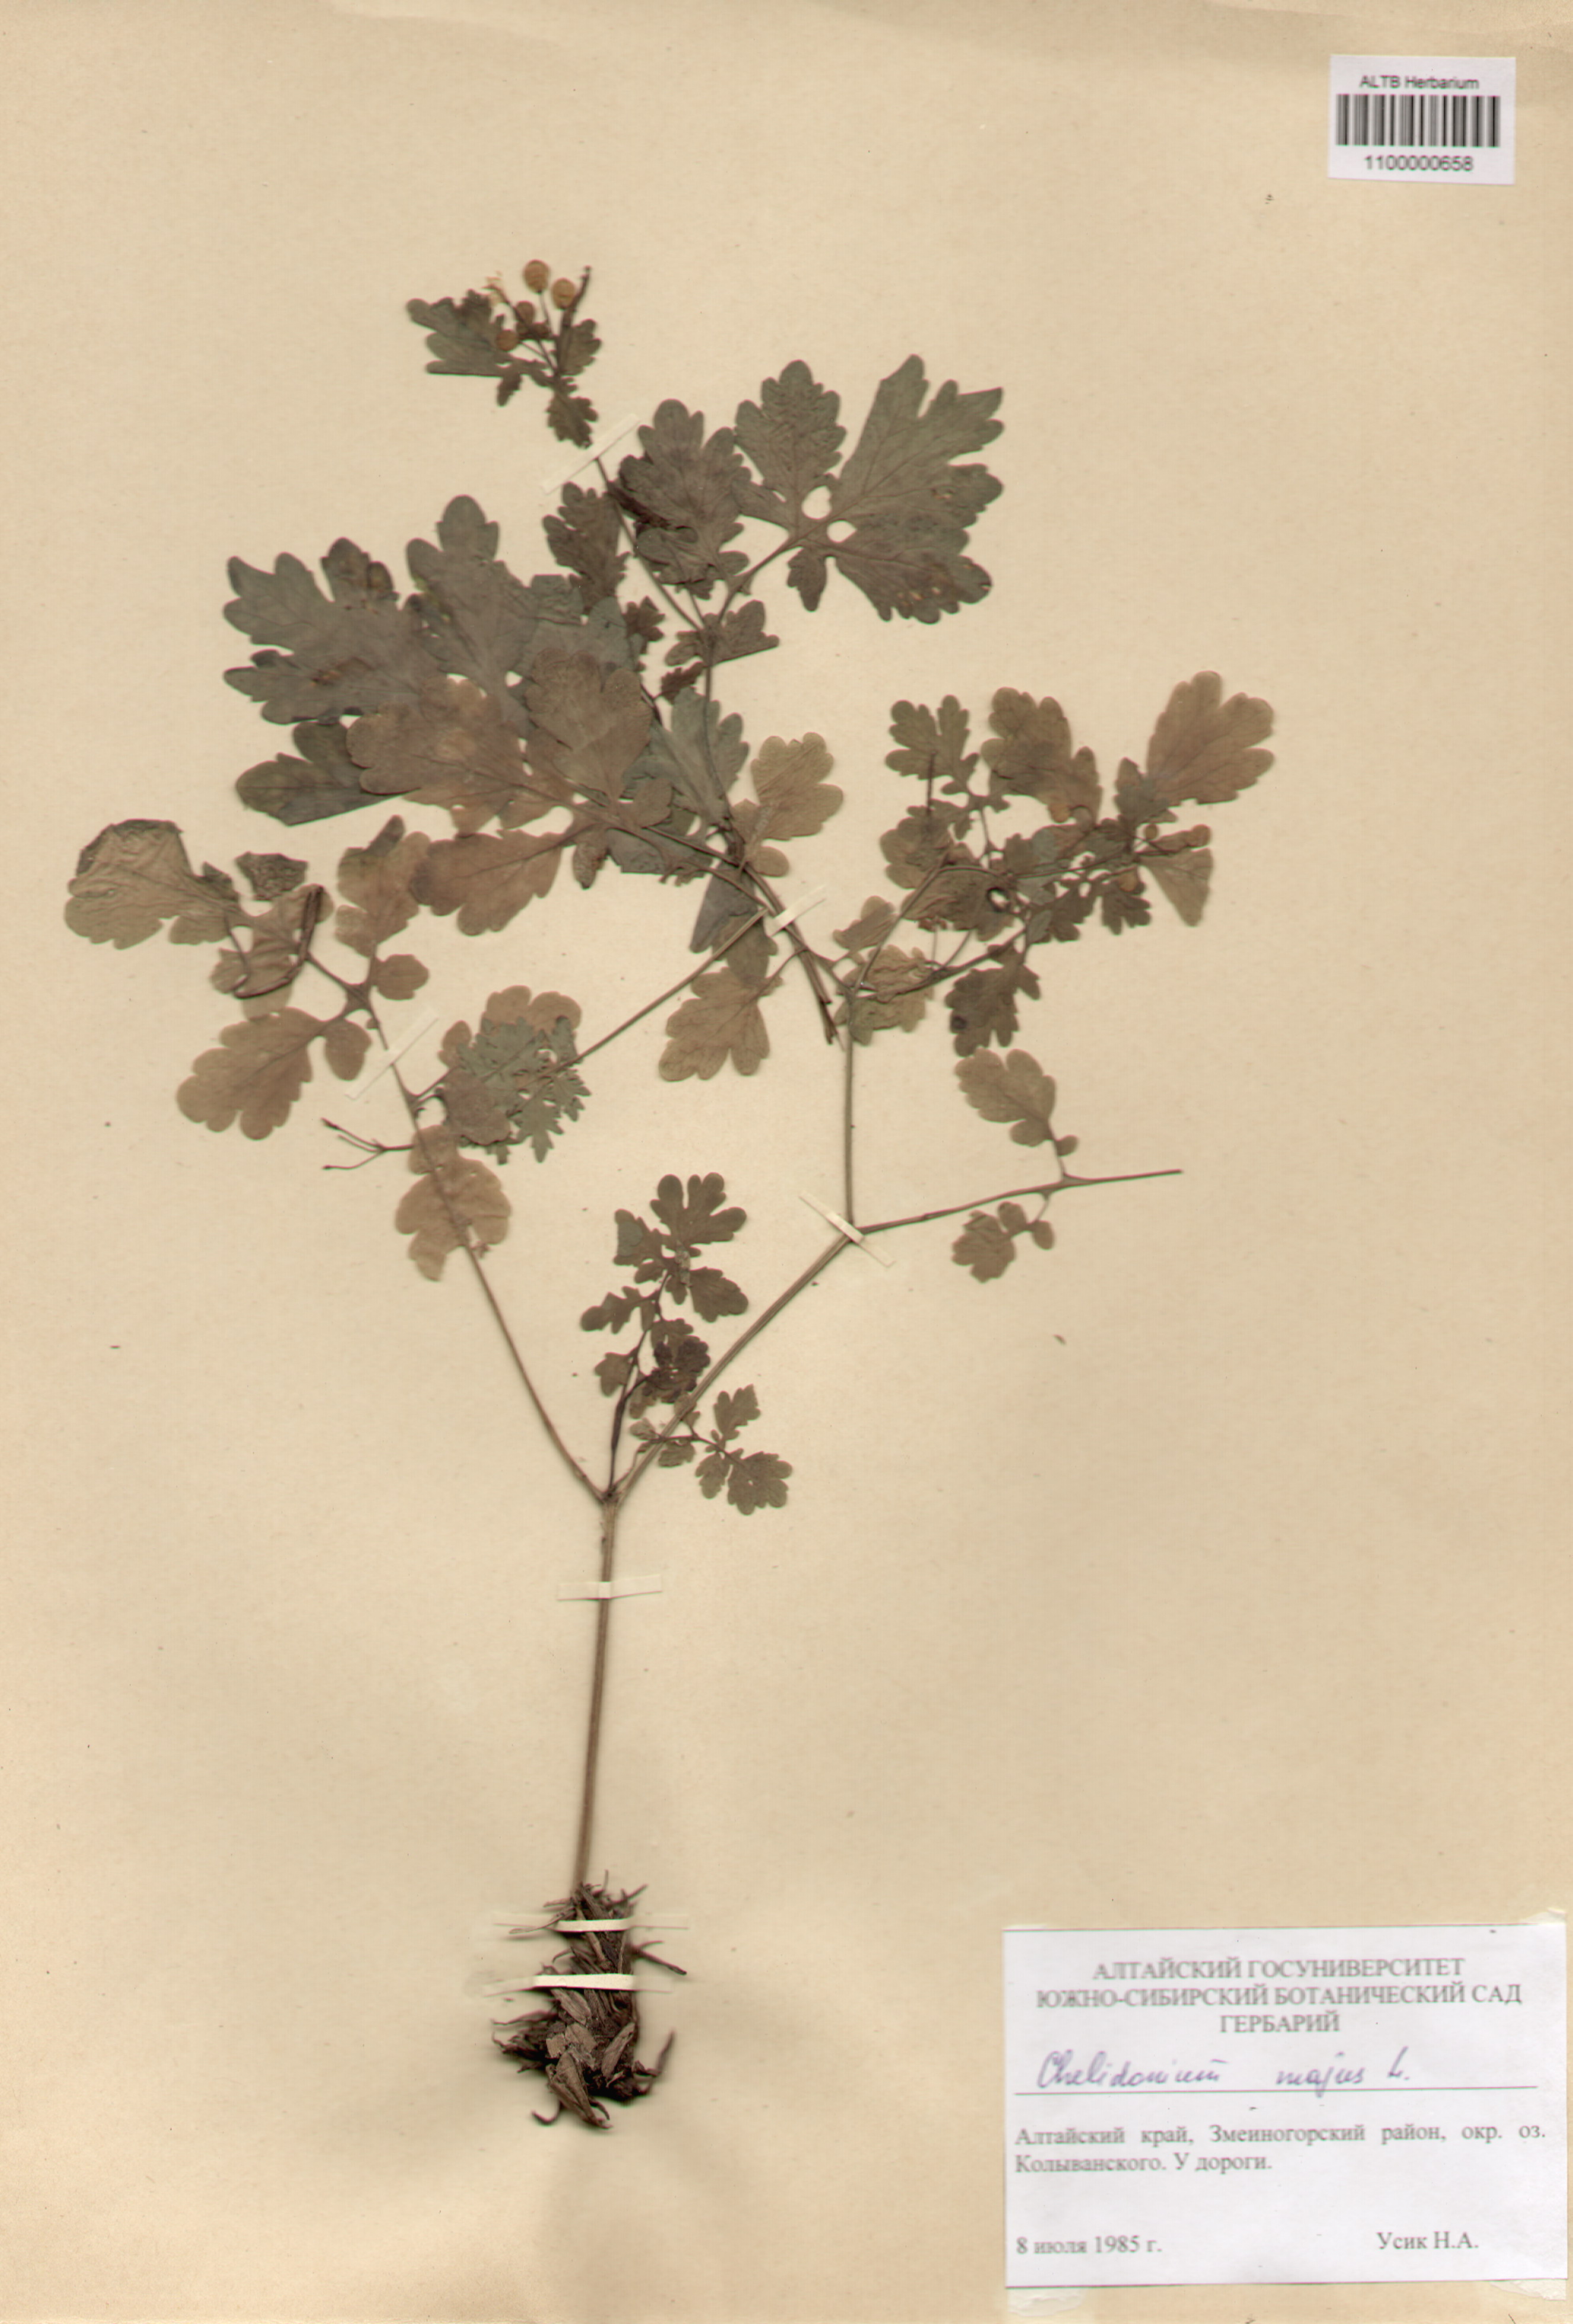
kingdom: Plantae
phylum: Tracheophyta
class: Magnoliopsida
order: Ranunculales
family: Papaveraceae
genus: Chelidonium
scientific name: Chelidonium majus
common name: Greater celandine
